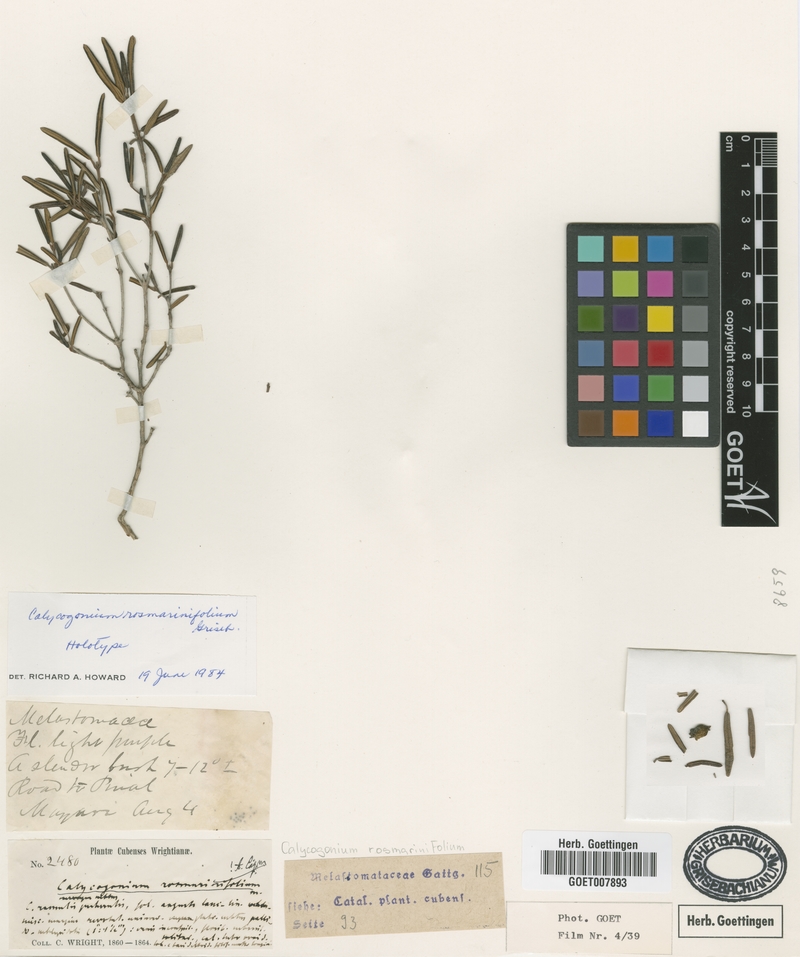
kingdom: Plantae
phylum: Tracheophyta
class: Magnoliopsida
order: Myrtales
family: Melastomataceae
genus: Miconia
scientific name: Miconia rosmarinifolia
